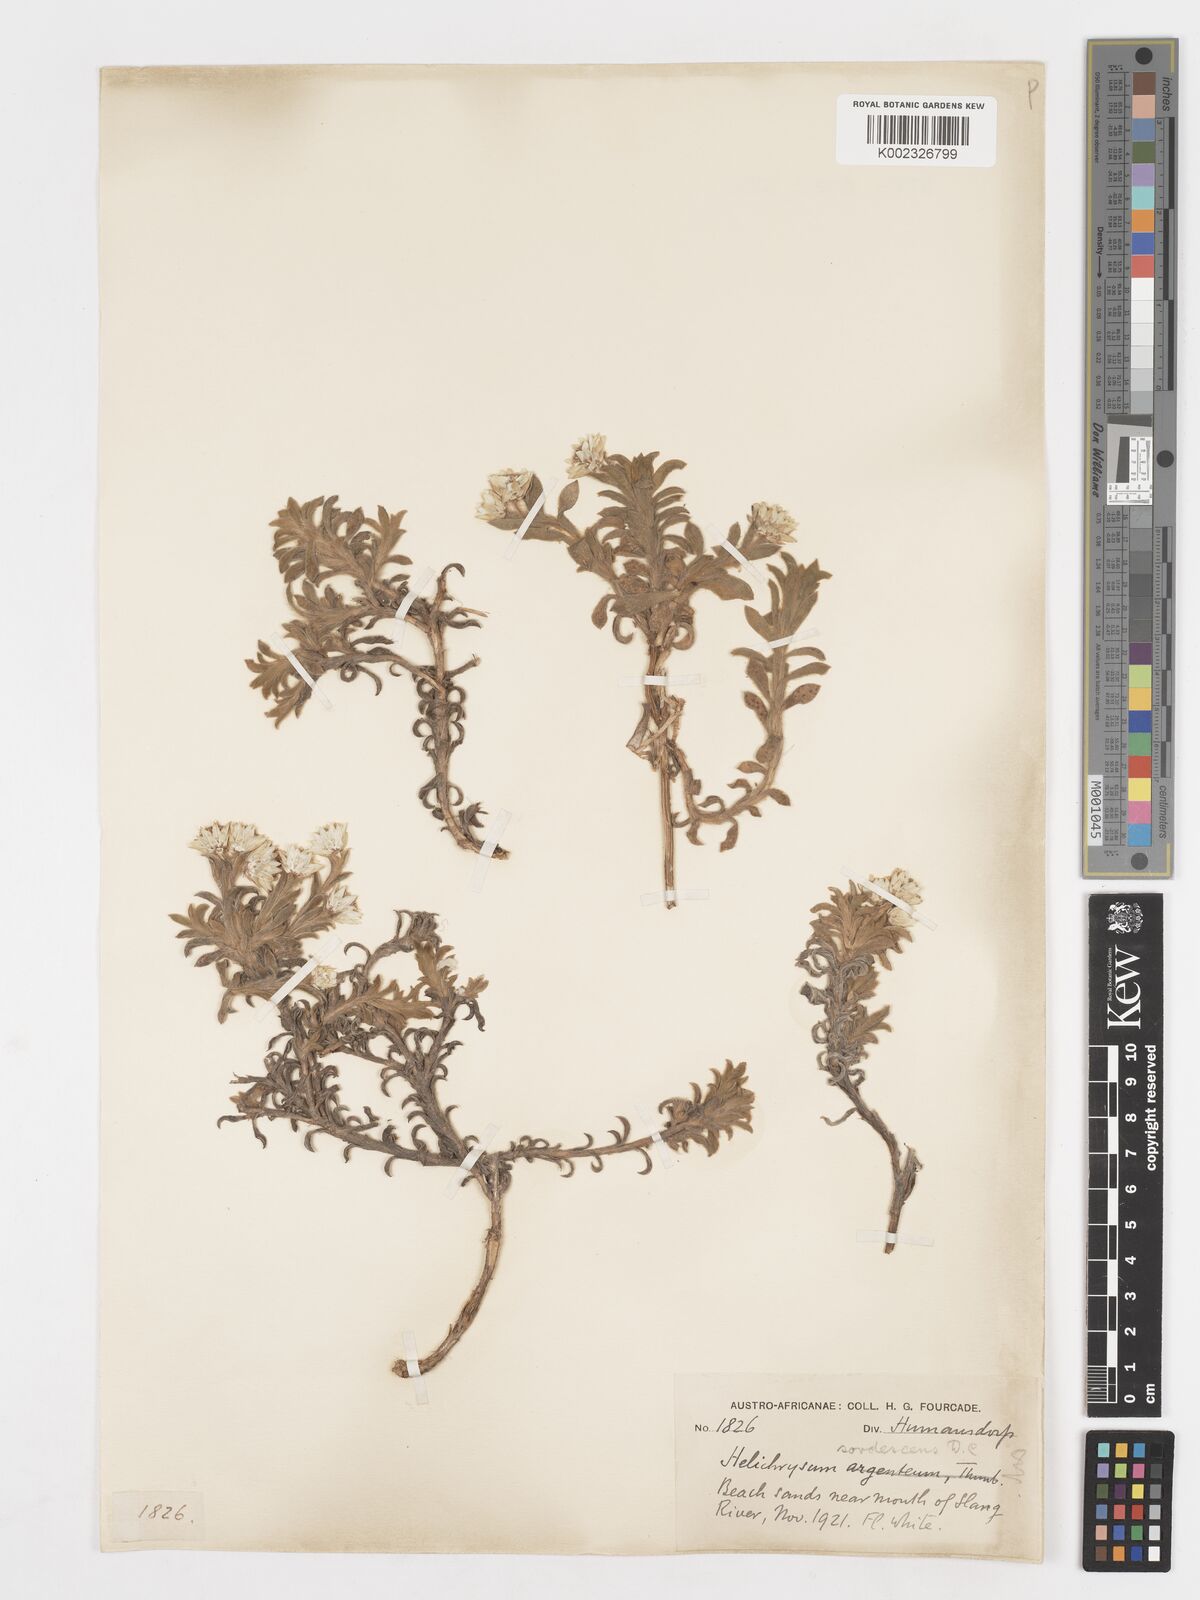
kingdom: Plantae
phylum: Tracheophyta
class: Magnoliopsida
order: Asterales
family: Asteraceae
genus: Achyranthemum
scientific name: Achyranthemum sordescens
